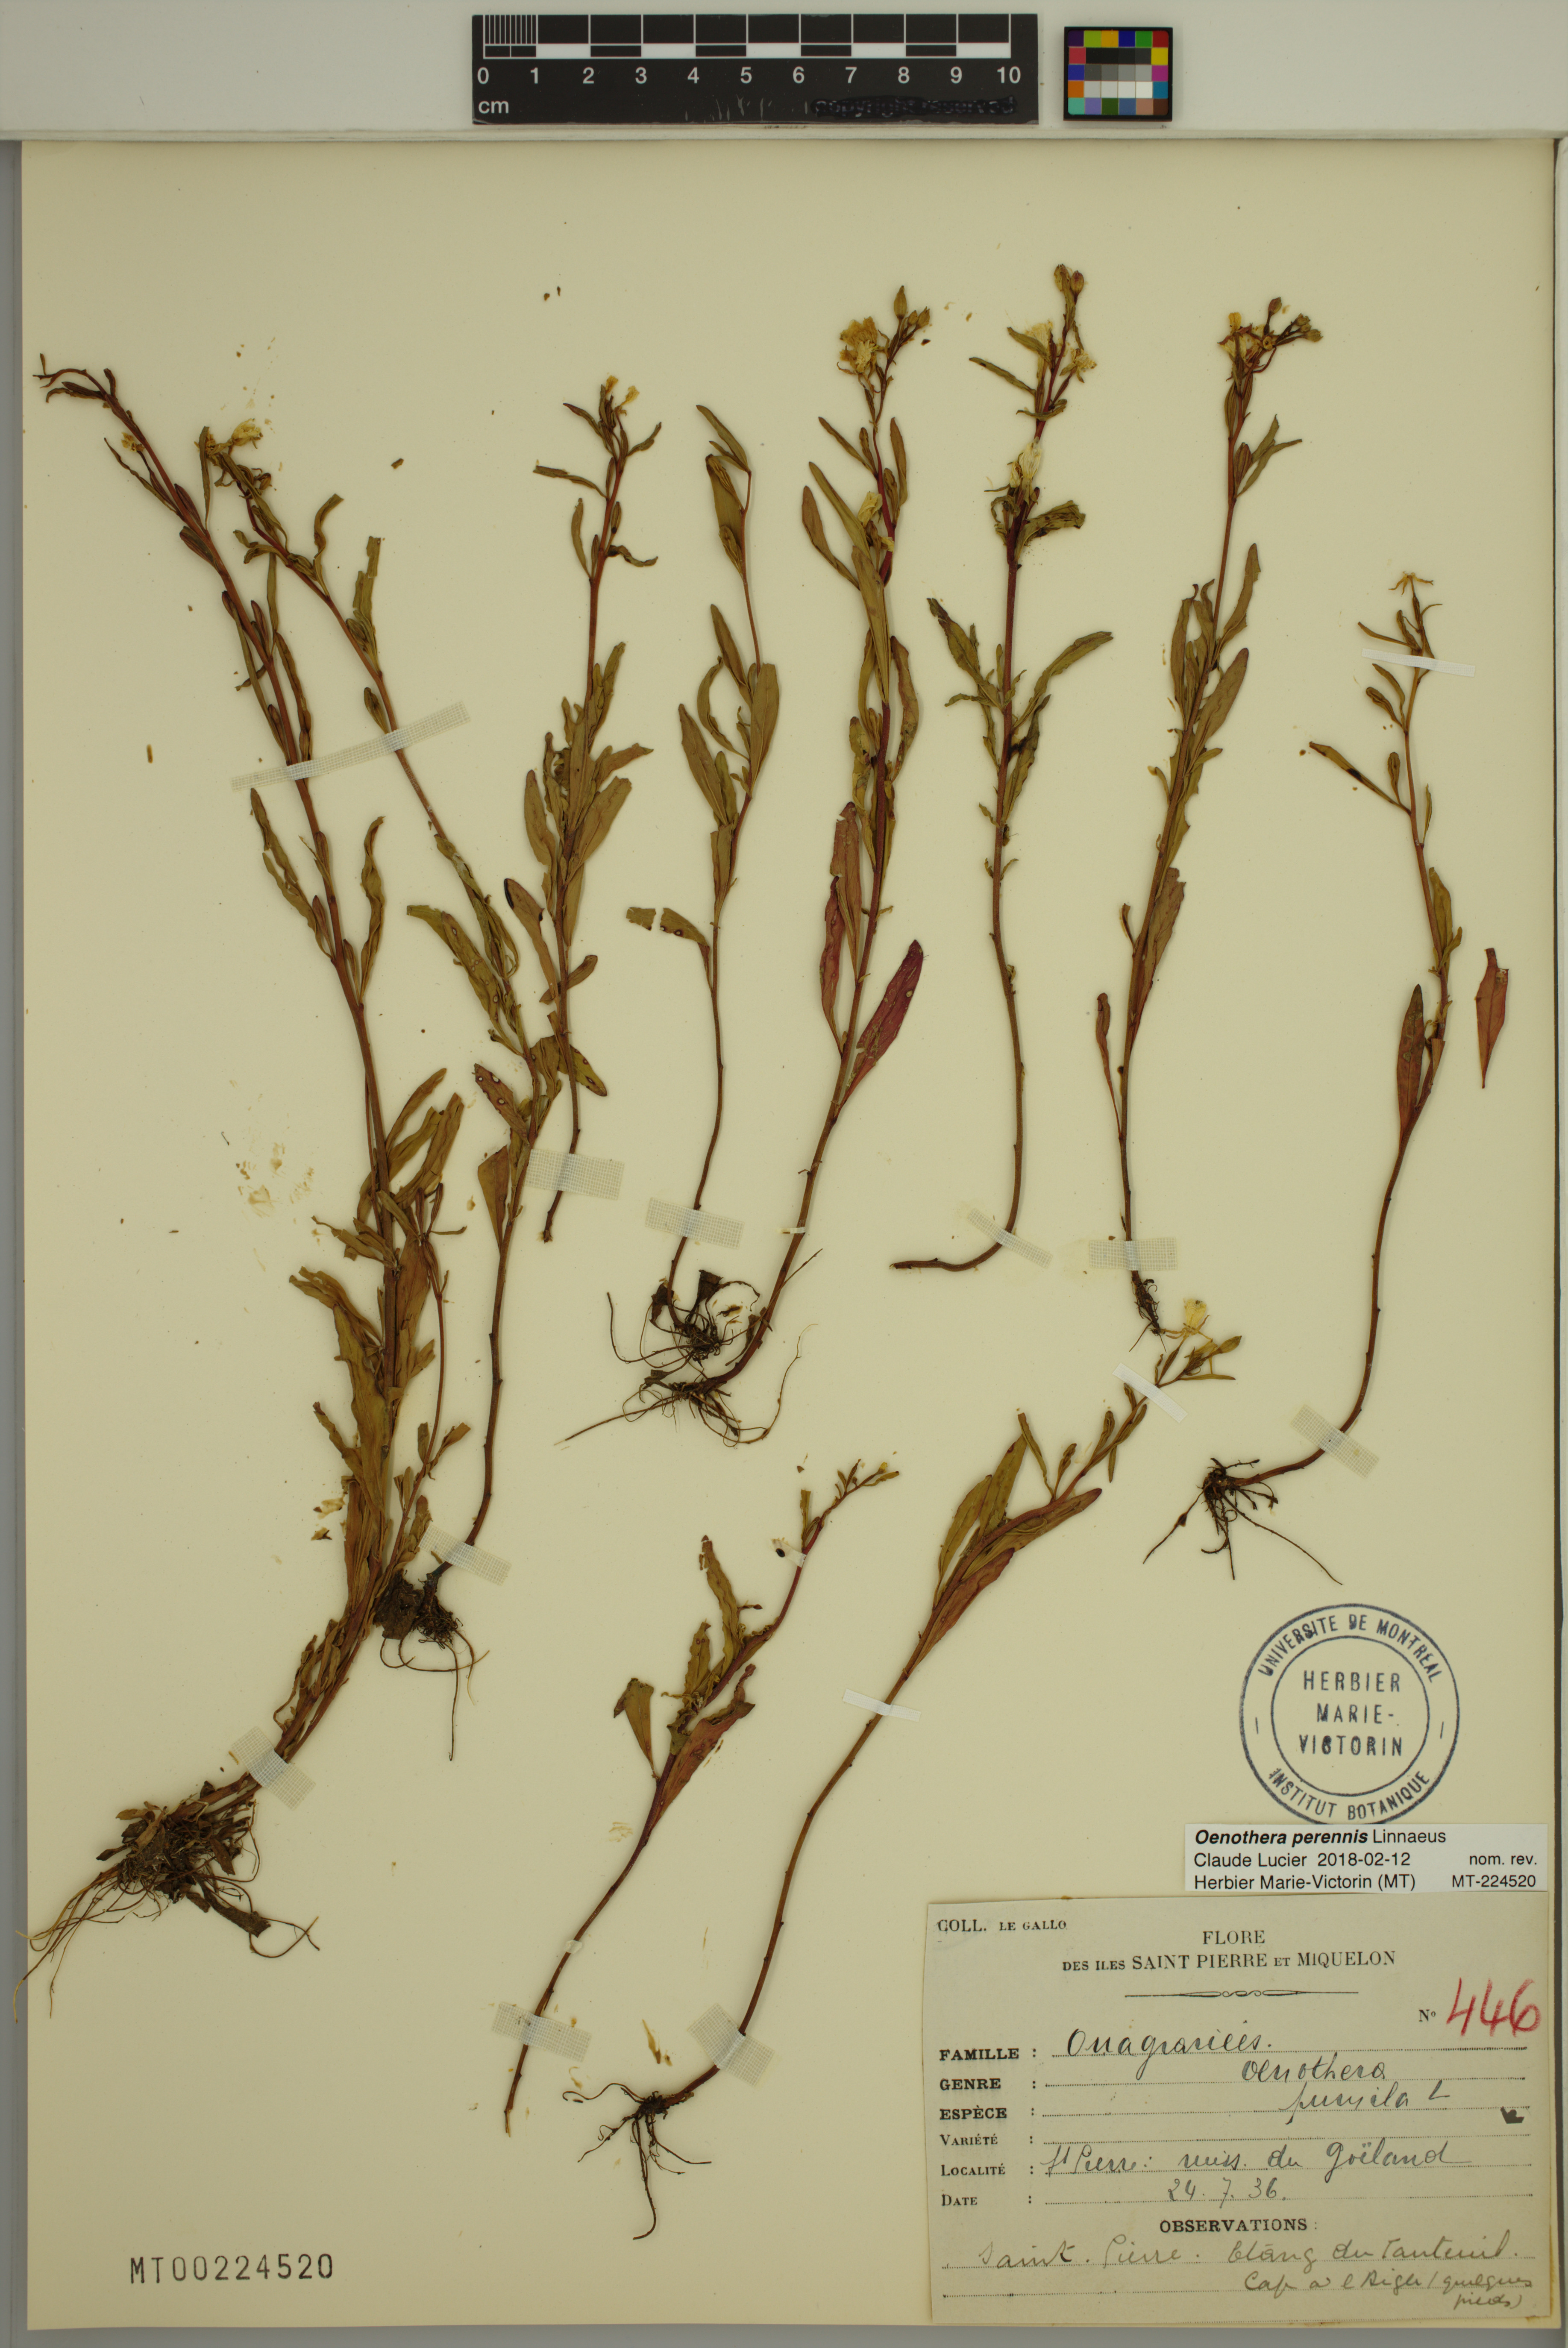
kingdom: Plantae
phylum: Tracheophyta
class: Magnoliopsida
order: Myrtales
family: Onagraceae
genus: Oenothera
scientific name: Oenothera perennis
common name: Small sundrops
